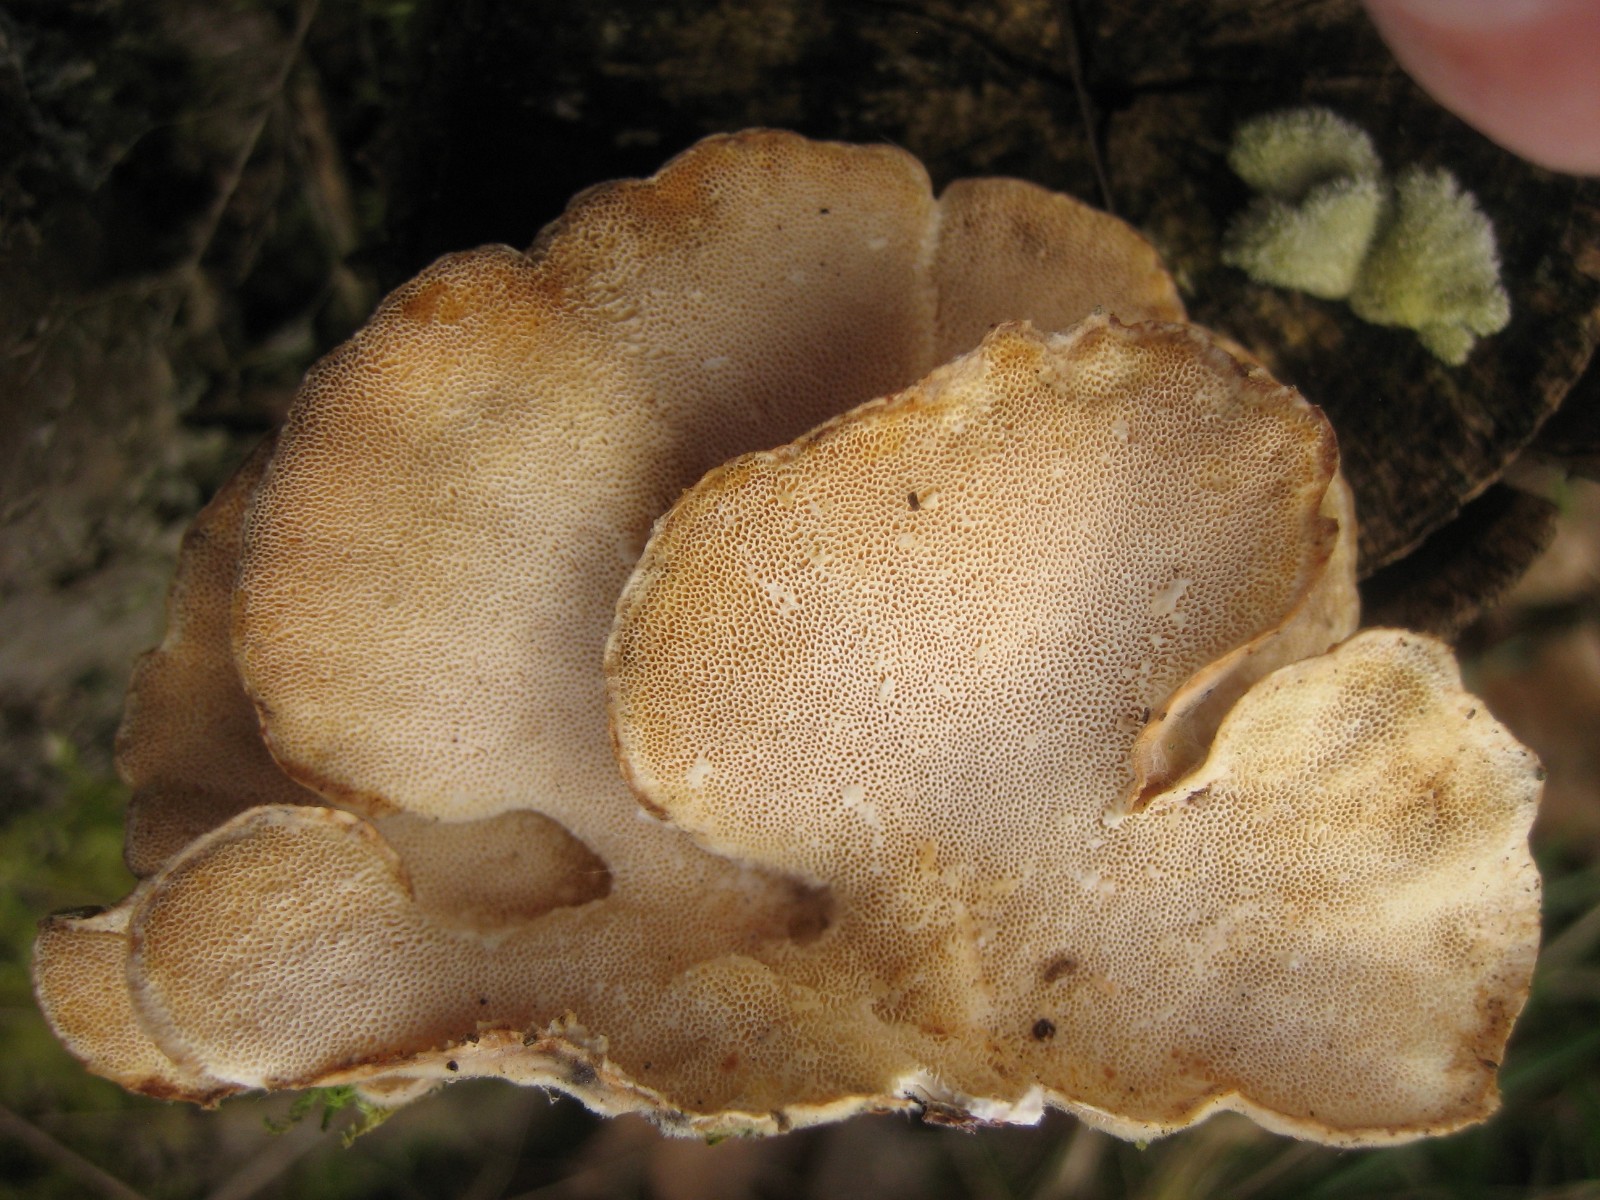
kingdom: Fungi
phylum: Basidiomycota
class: Agaricomycetes
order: Polyporales
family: Polyporaceae
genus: Trametes
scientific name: Trametes versicolor
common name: broget læderporesvamp
